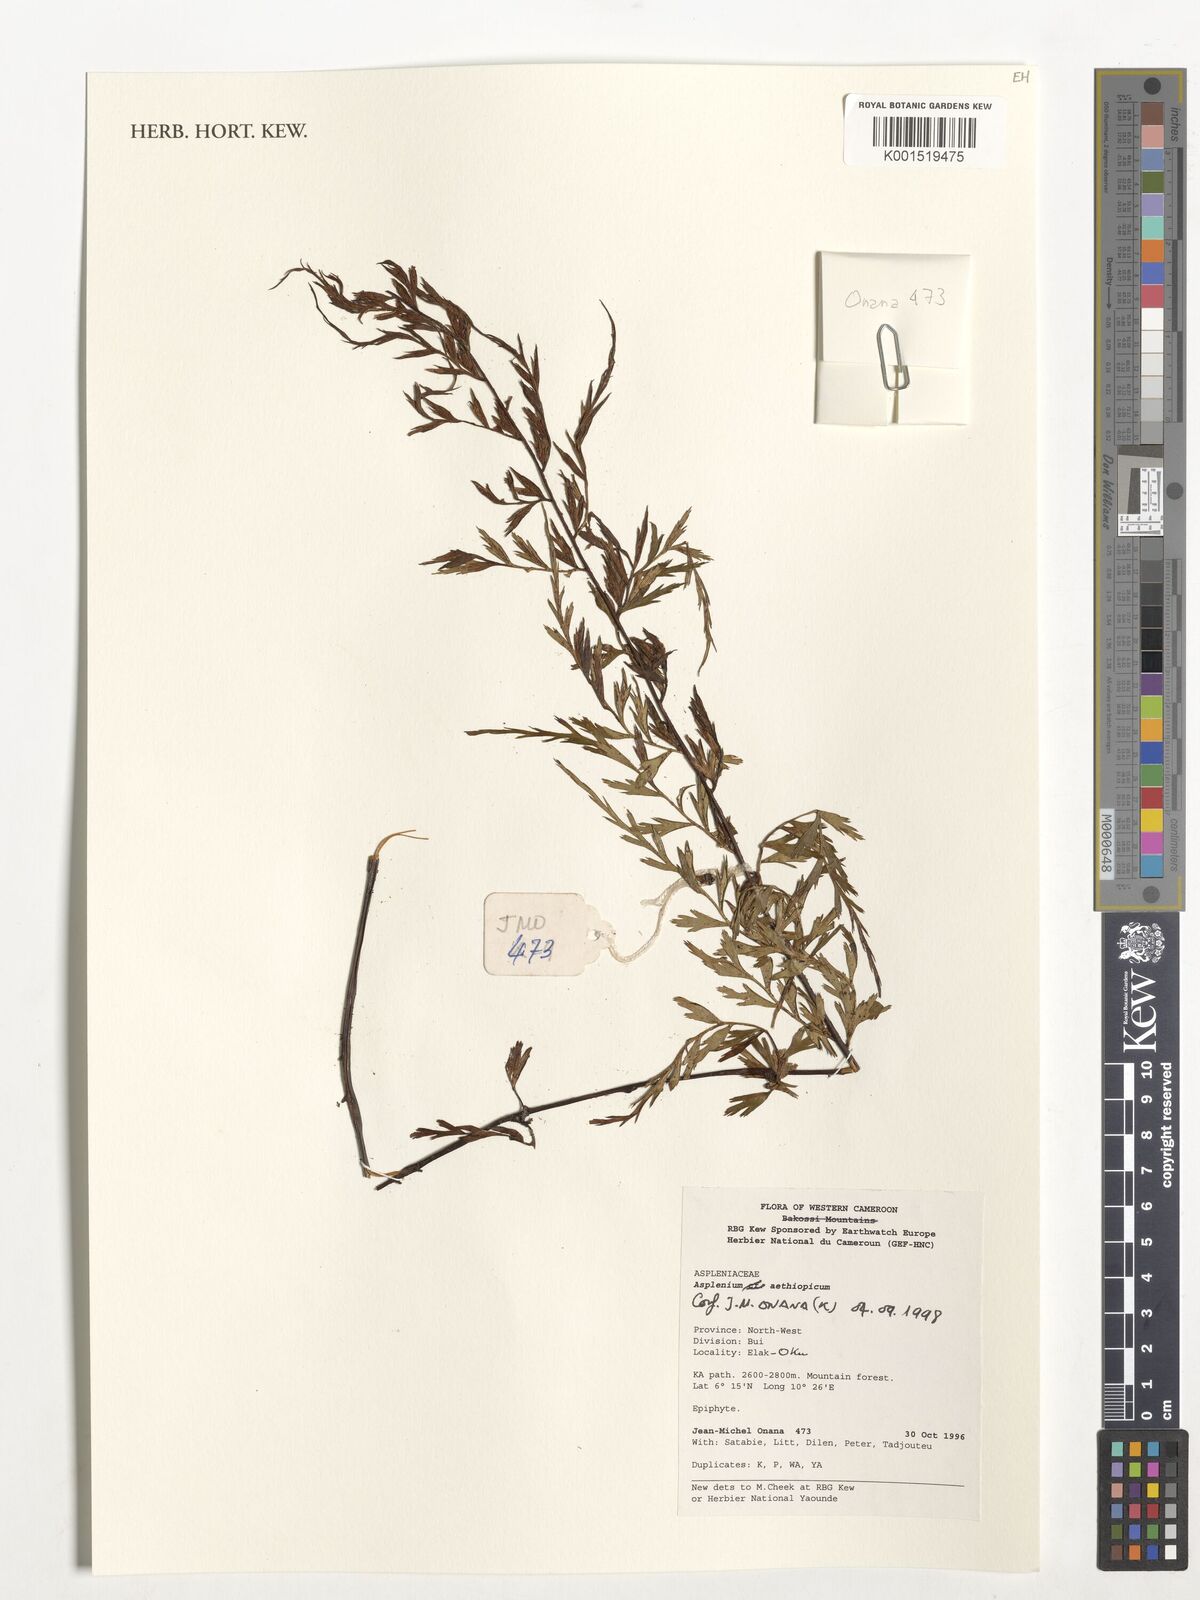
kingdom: Plantae
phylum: Tracheophyta
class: Polypodiopsida
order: Polypodiales
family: Aspleniaceae
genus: Asplenium
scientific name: Asplenium aethiopicum
